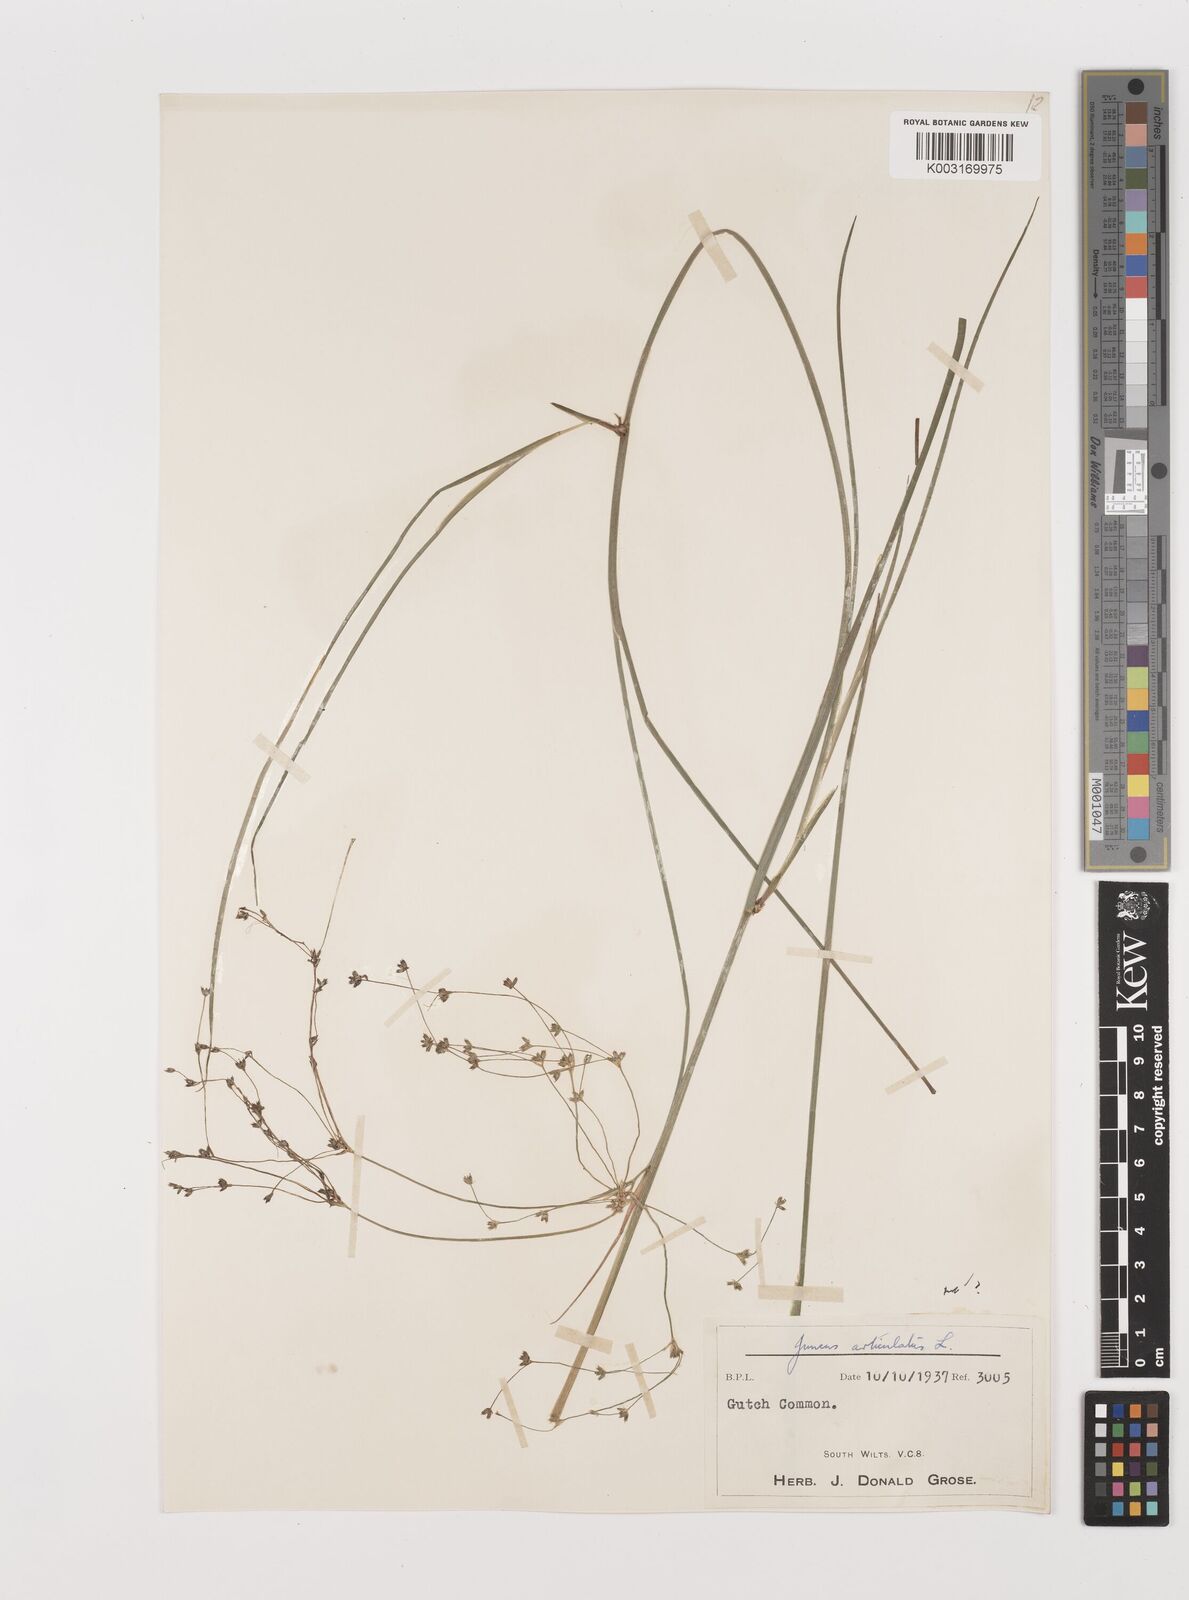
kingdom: Plantae
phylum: Tracheophyta
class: Liliopsida
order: Poales
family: Juncaceae
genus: Juncus
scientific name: Juncus articulatus
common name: Jointed rush
